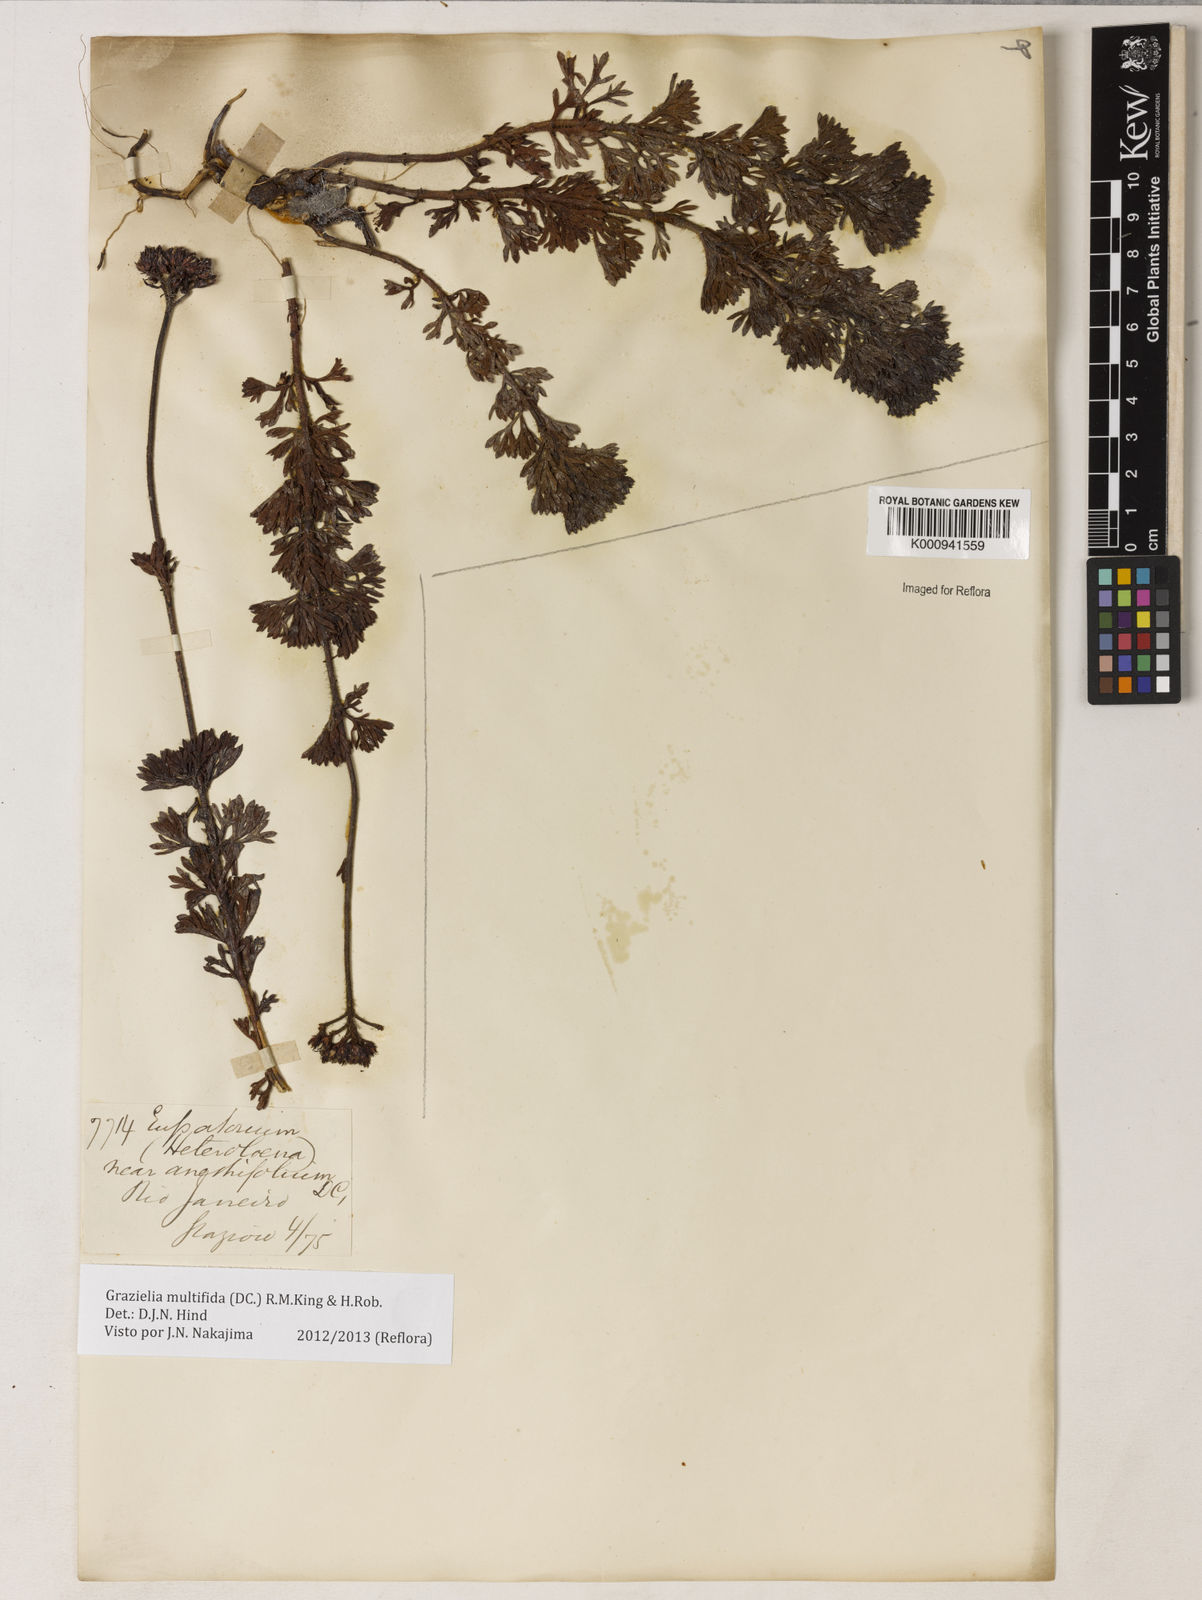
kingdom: Plantae
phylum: Tracheophyta
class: Magnoliopsida
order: Asterales
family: Asteraceae
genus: Grazielia
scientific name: Grazielia multifida
